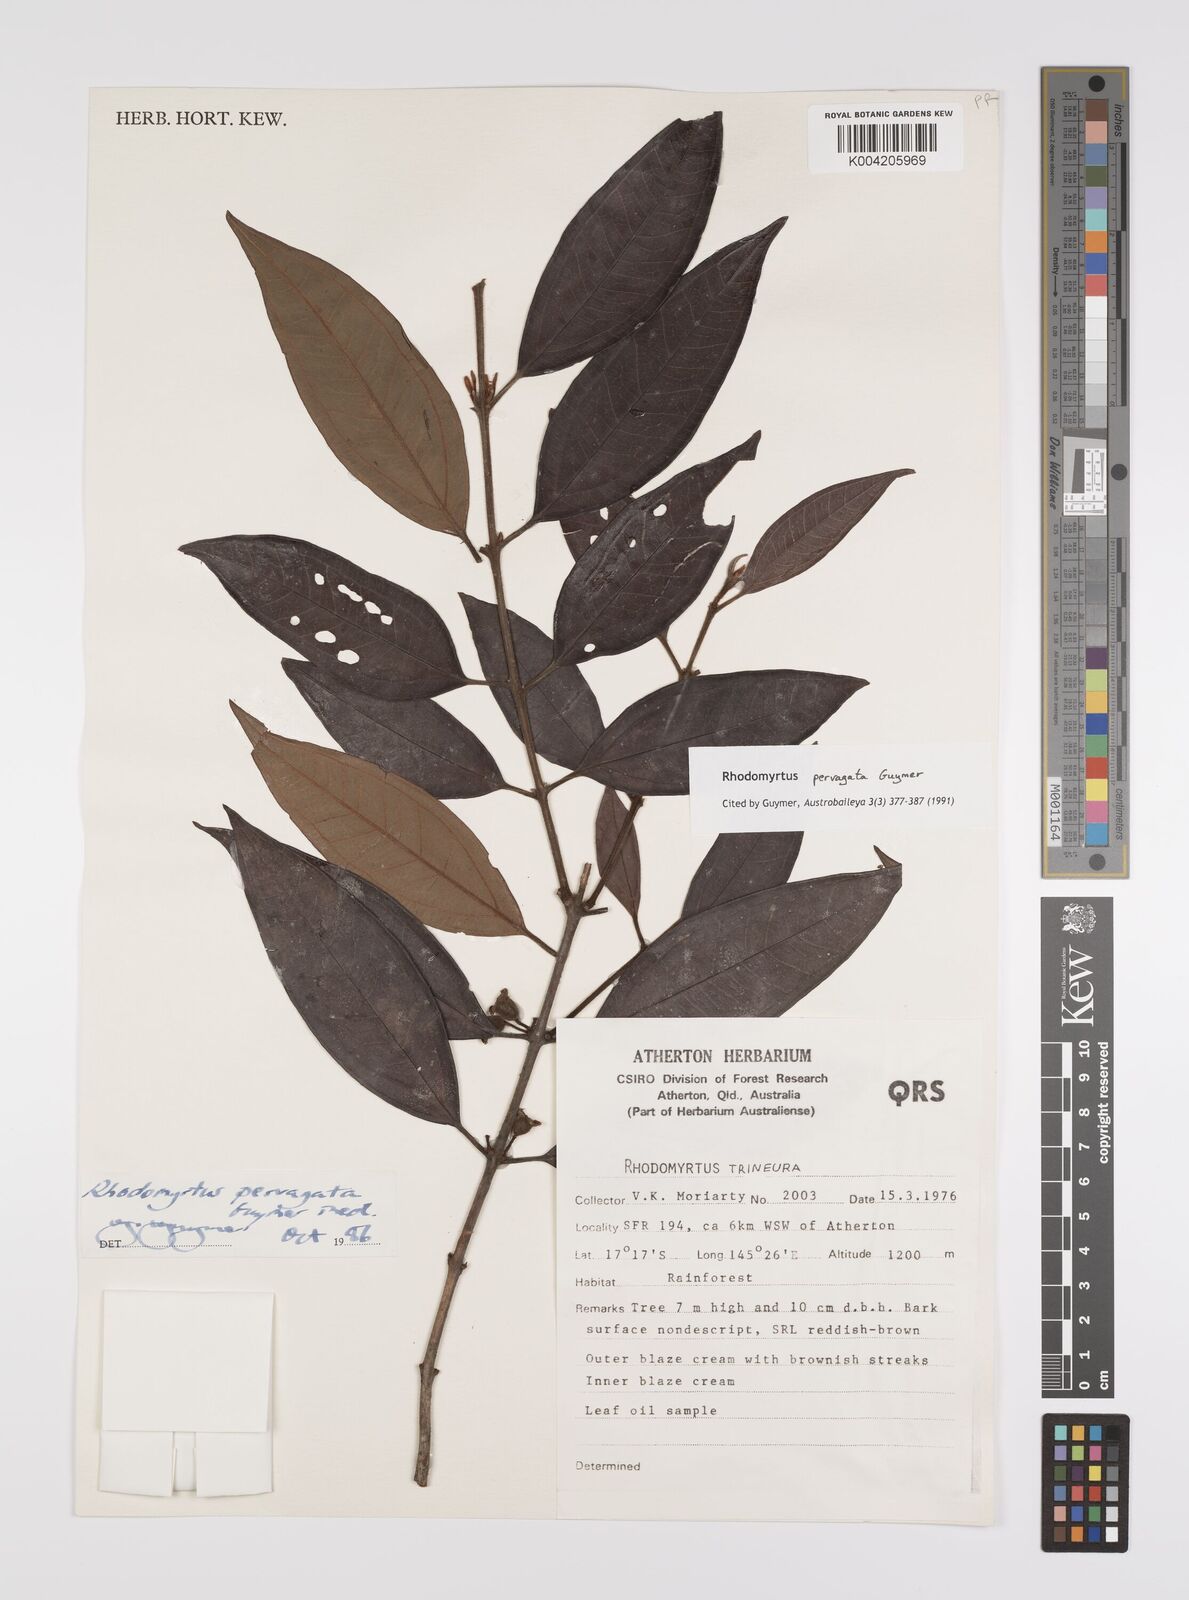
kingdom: Plantae
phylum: Tracheophyta
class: Magnoliopsida
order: Myrtales
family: Myrtaceae
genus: Rhodomyrtus
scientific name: Rhodomyrtus pervagata
